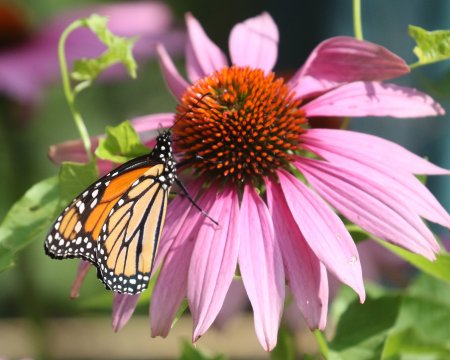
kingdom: Animalia
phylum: Arthropoda
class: Insecta
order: Lepidoptera
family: Nymphalidae
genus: Danaus
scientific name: Danaus plexippus
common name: Monarch
